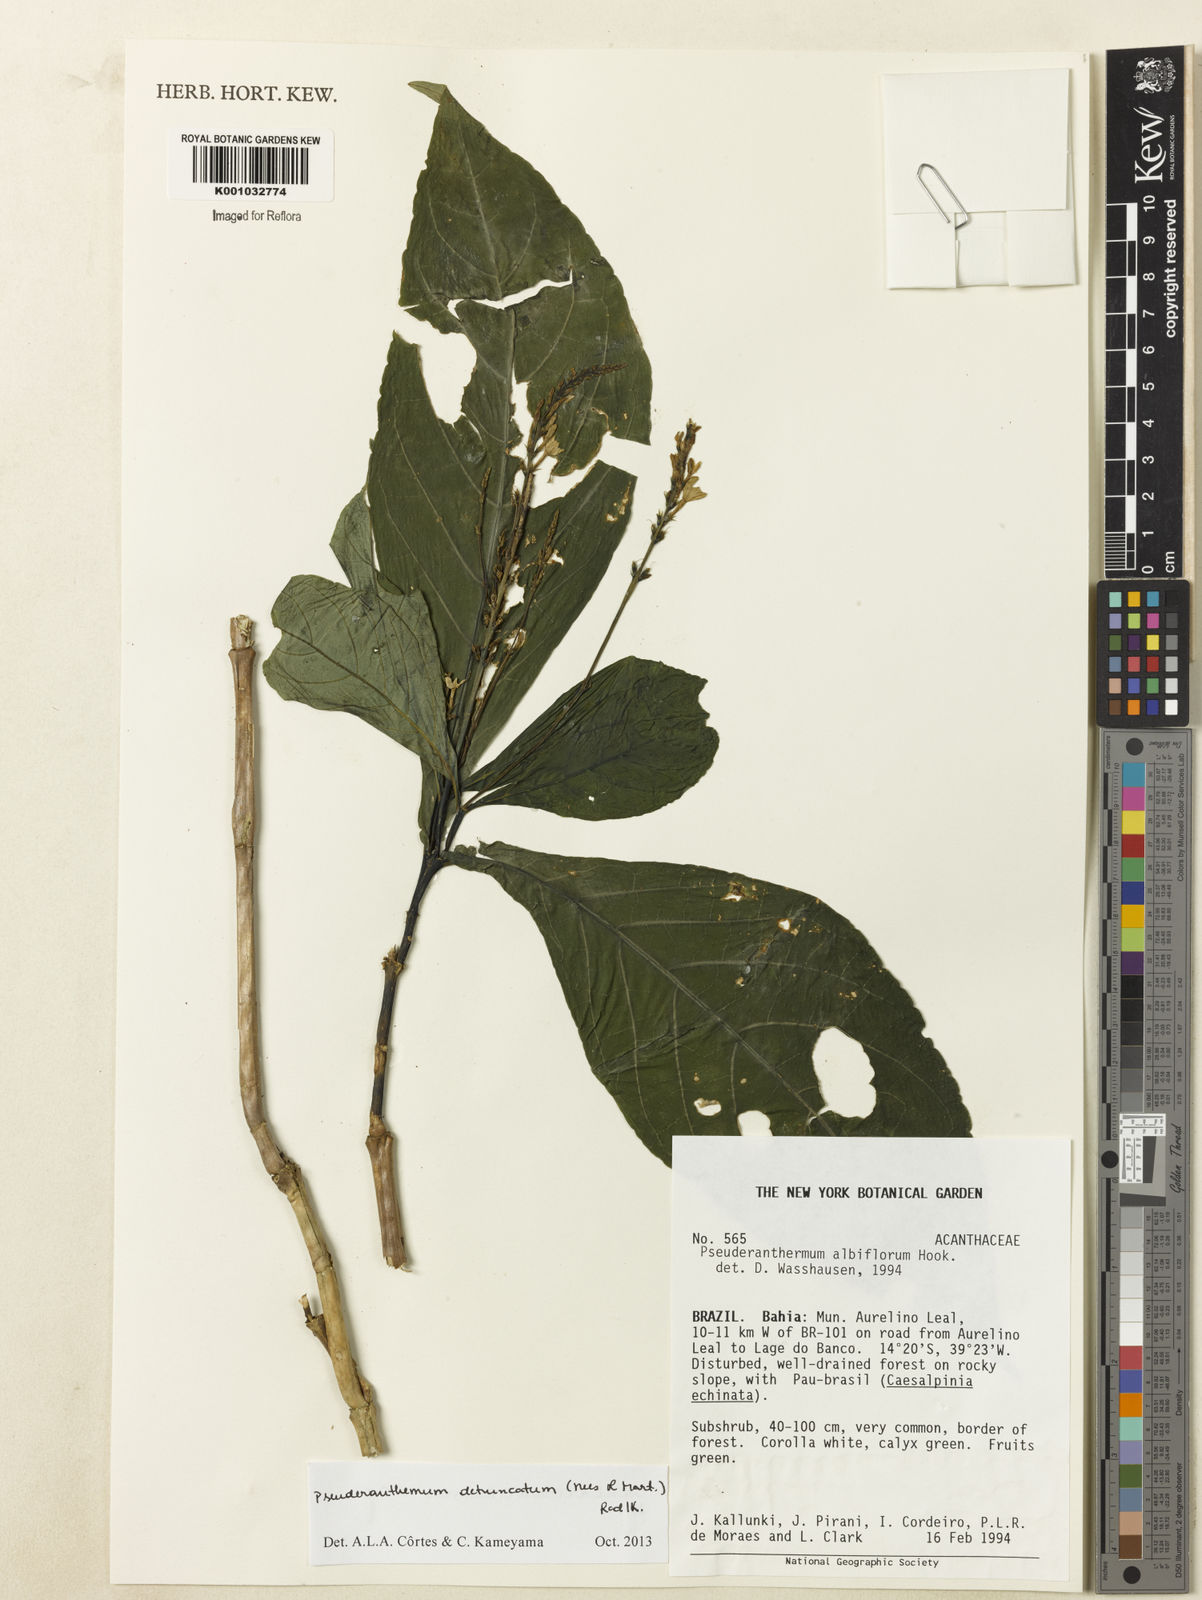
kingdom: Plantae
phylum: Tracheophyta
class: Magnoliopsida
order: Lamiales
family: Acanthaceae
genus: Pseuderanthemum
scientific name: Pseuderanthemum detruncatum
